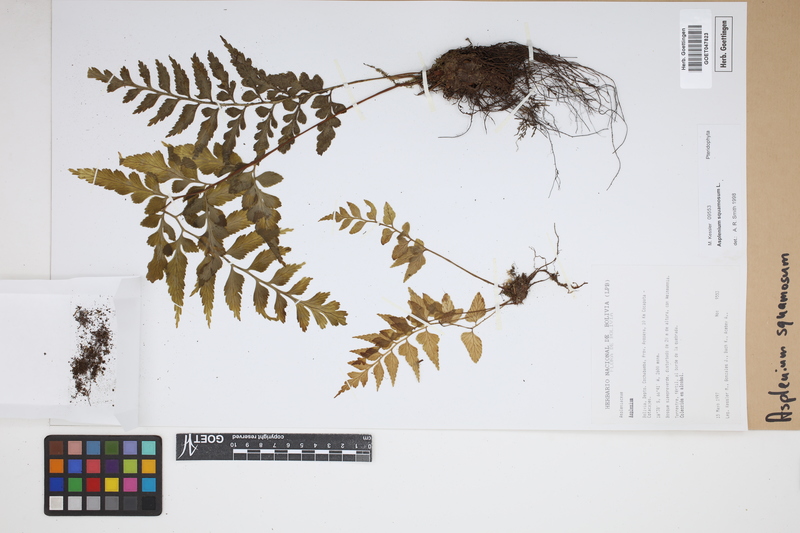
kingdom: Plantae
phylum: Tracheophyta
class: Polypodiopsida
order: Polypodiales
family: Aspleniaceae
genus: Asplenium
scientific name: Asplenium squamosum
